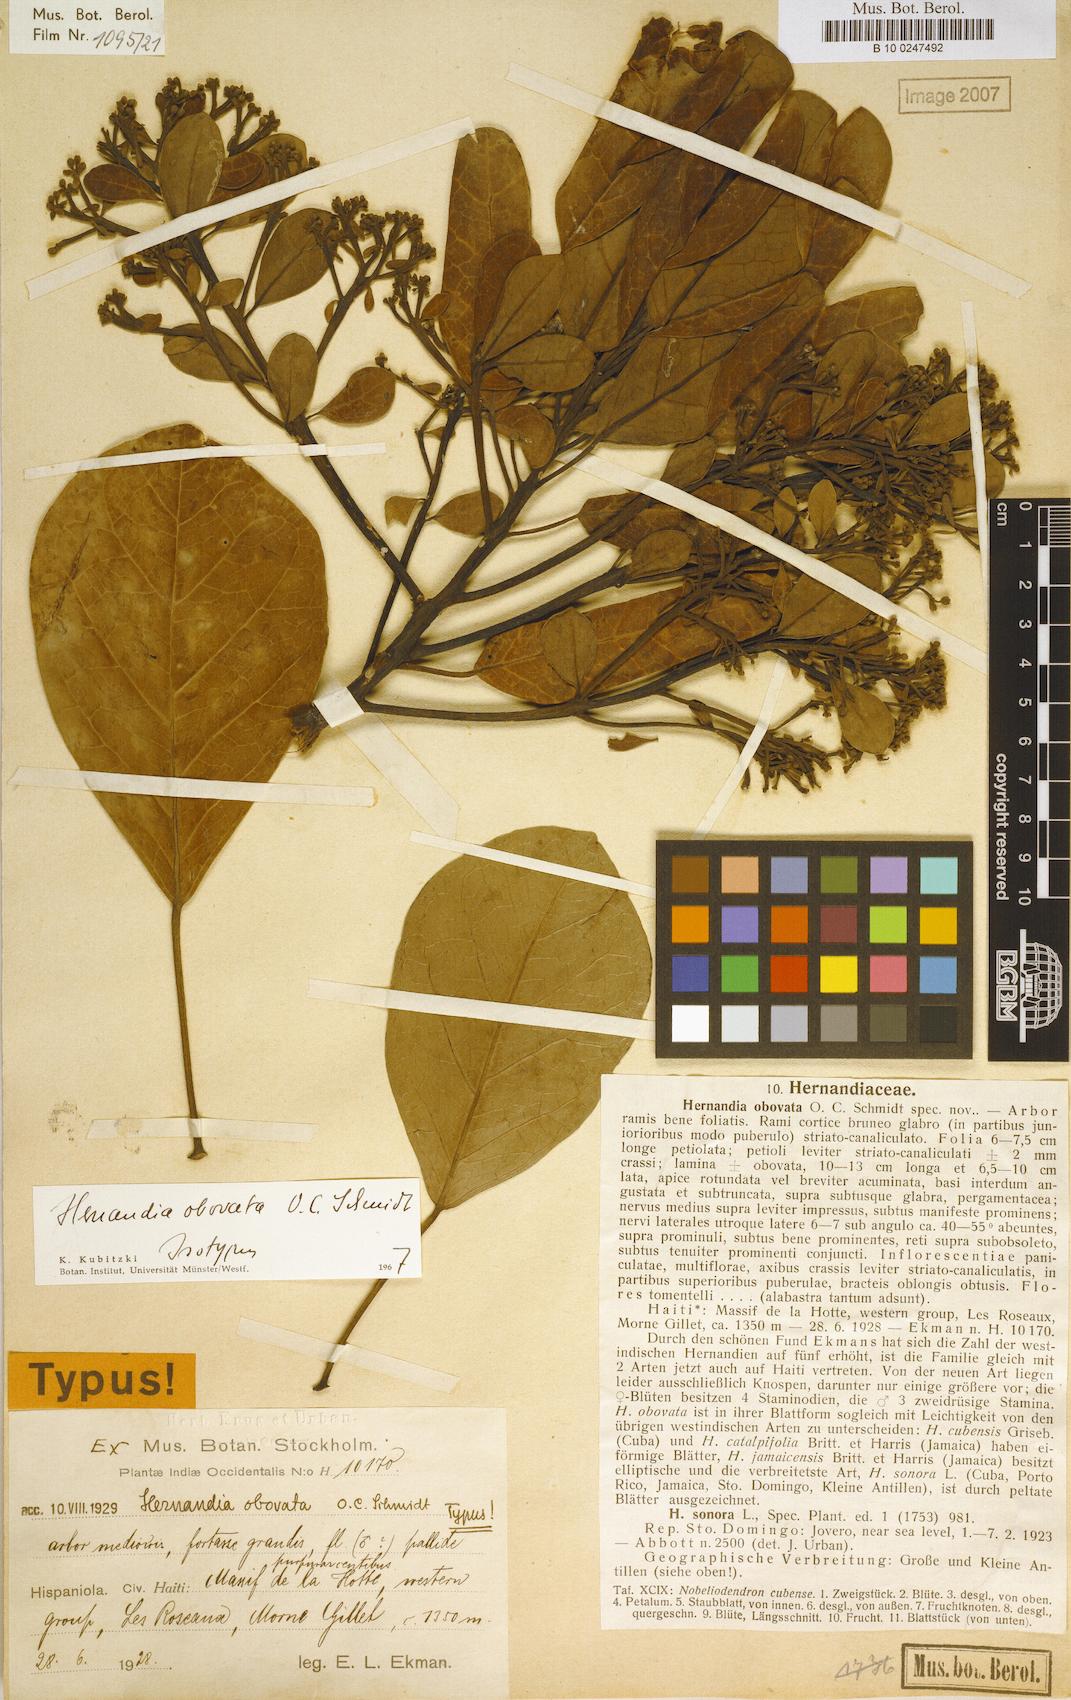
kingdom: Plantae
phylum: Tracheophyta
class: Magnoliopsida
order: Laurales
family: Hernandiaceae
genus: Hernandia
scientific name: Hernandia obovata
